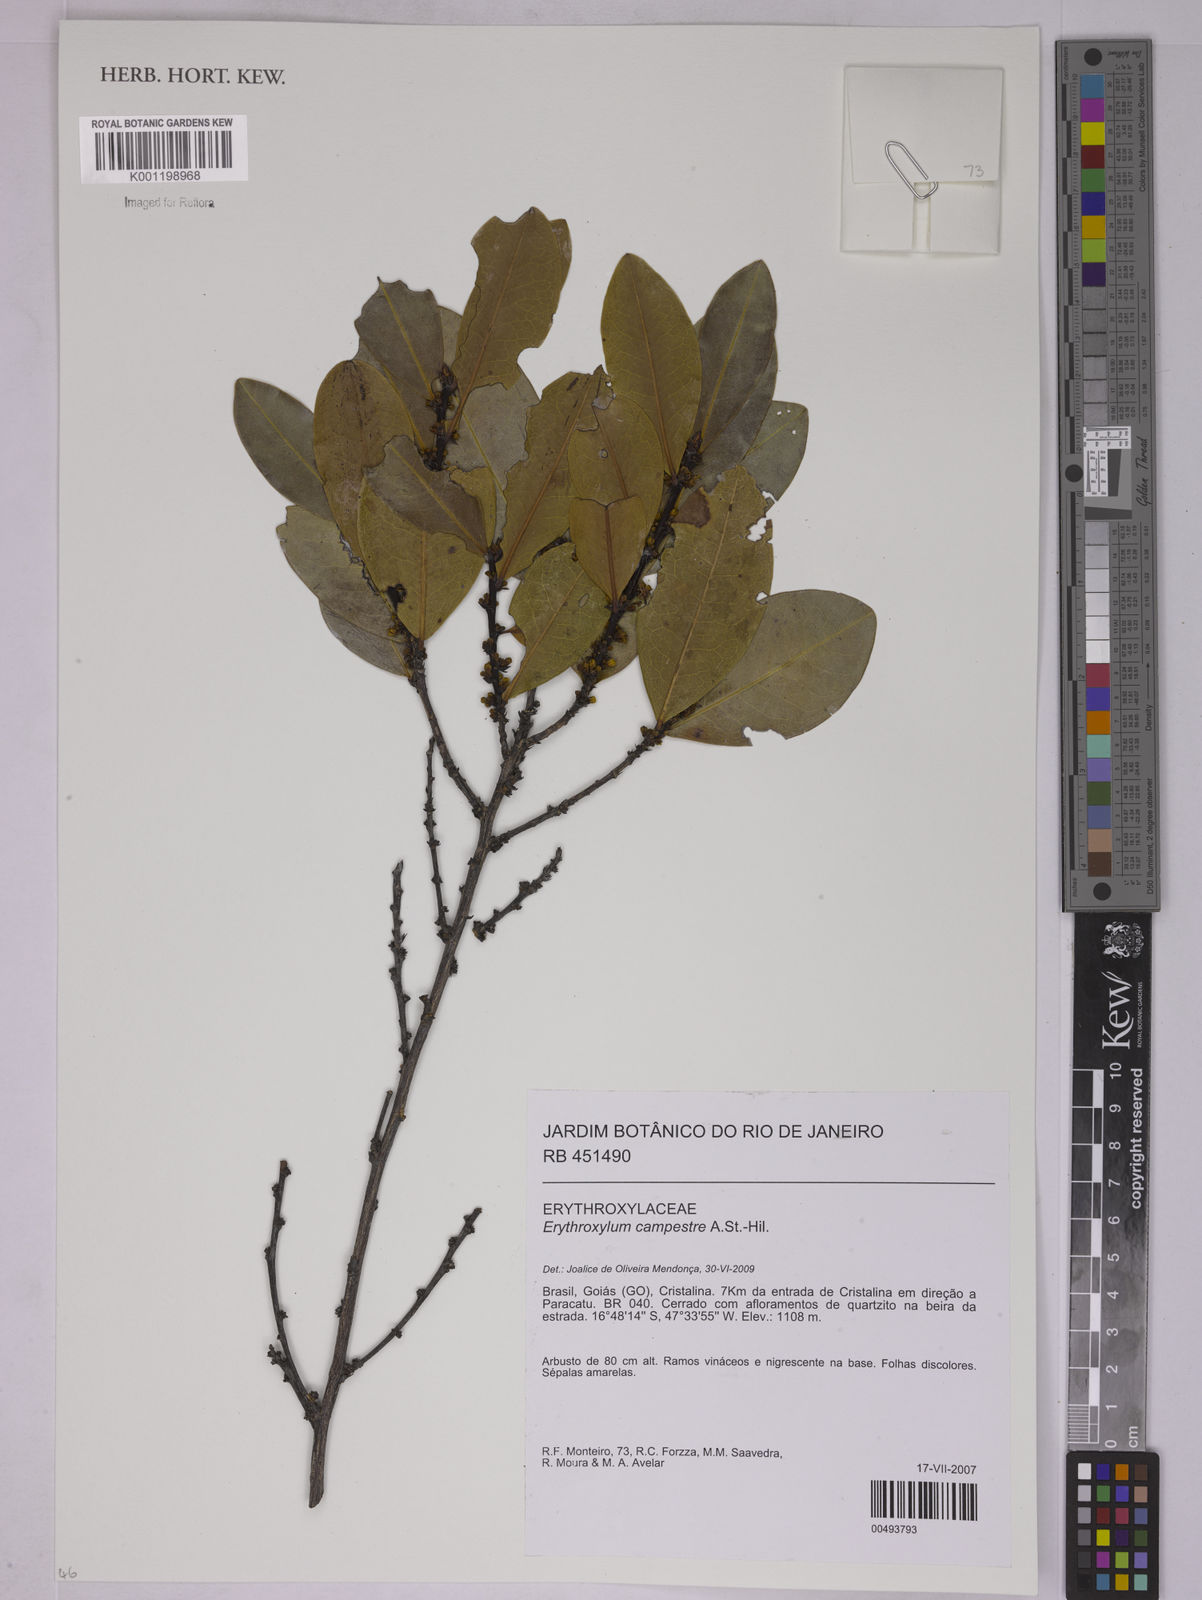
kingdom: Plantae
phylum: Tracheophyta
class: Magnoliopsida
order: Malpighiales
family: Erythroxylaceae
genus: Erythroxylum
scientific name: Erythroxylum campestre
